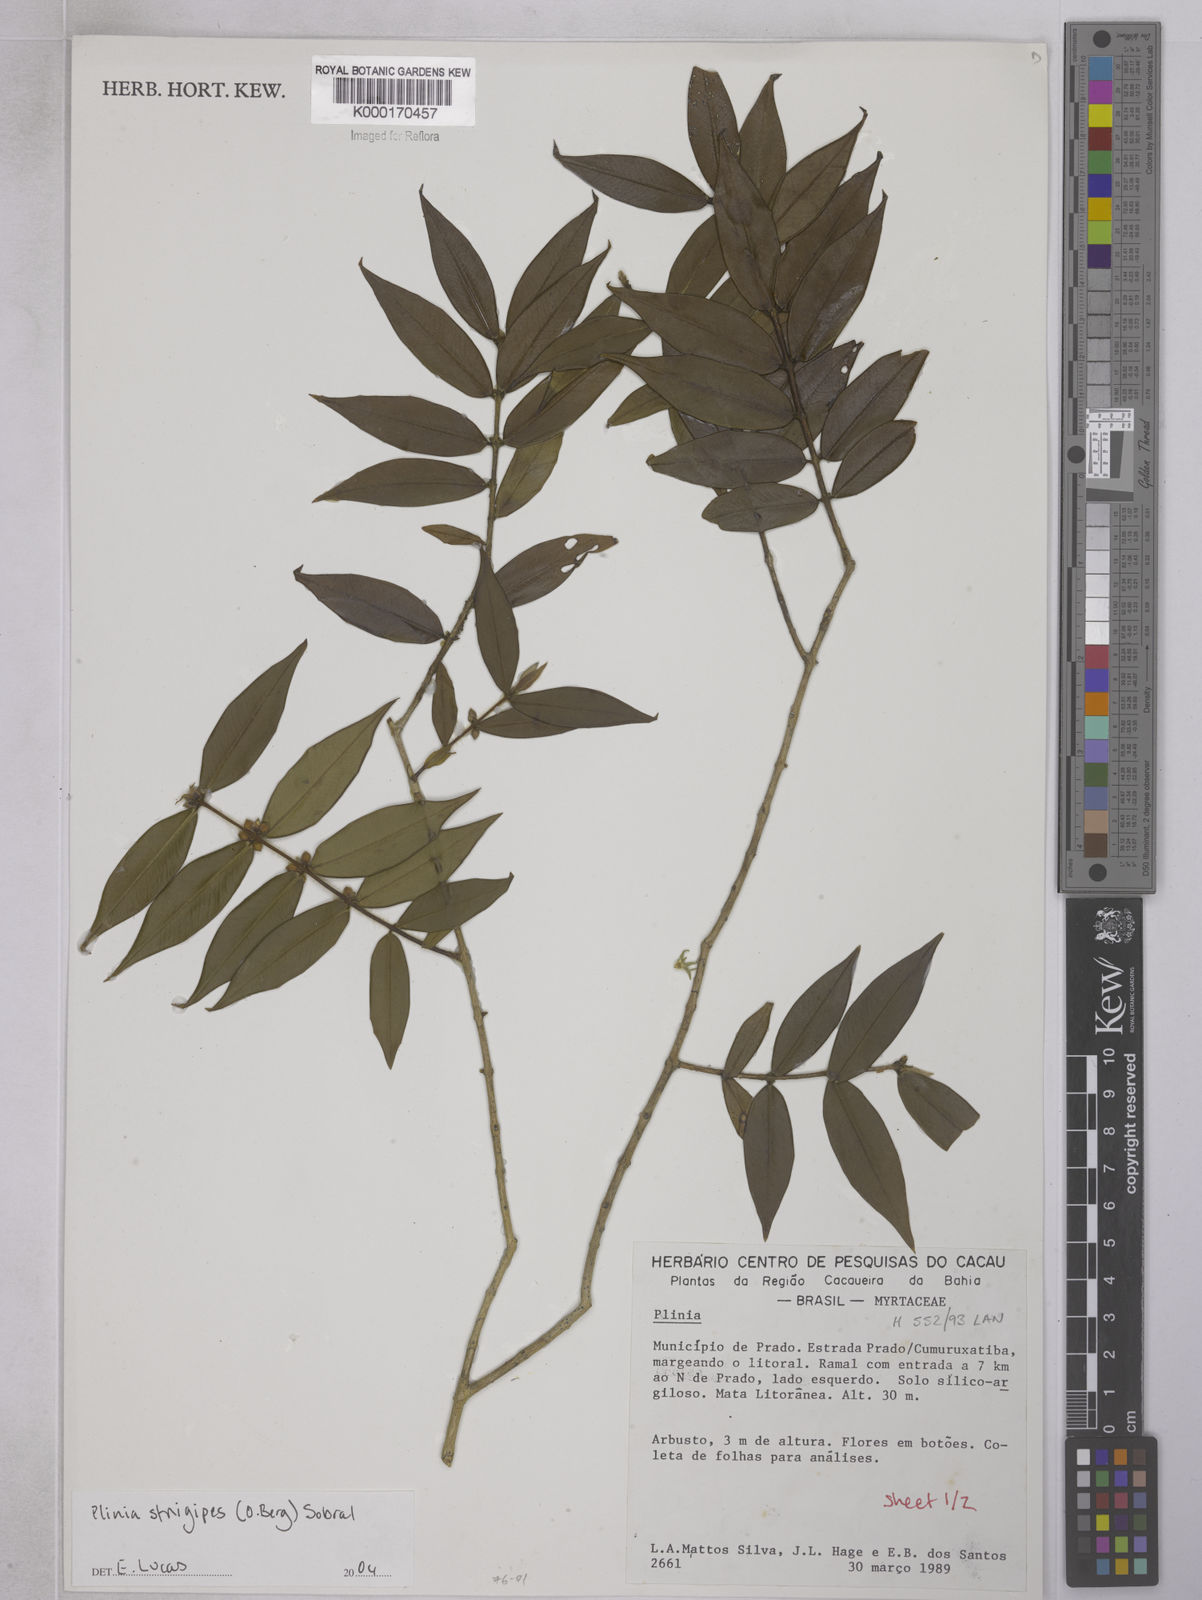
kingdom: Plantae
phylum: Tracheophyta
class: Magnoliopsida
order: Myrtales
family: Myrtaceae
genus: Plinia
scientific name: Plinia
